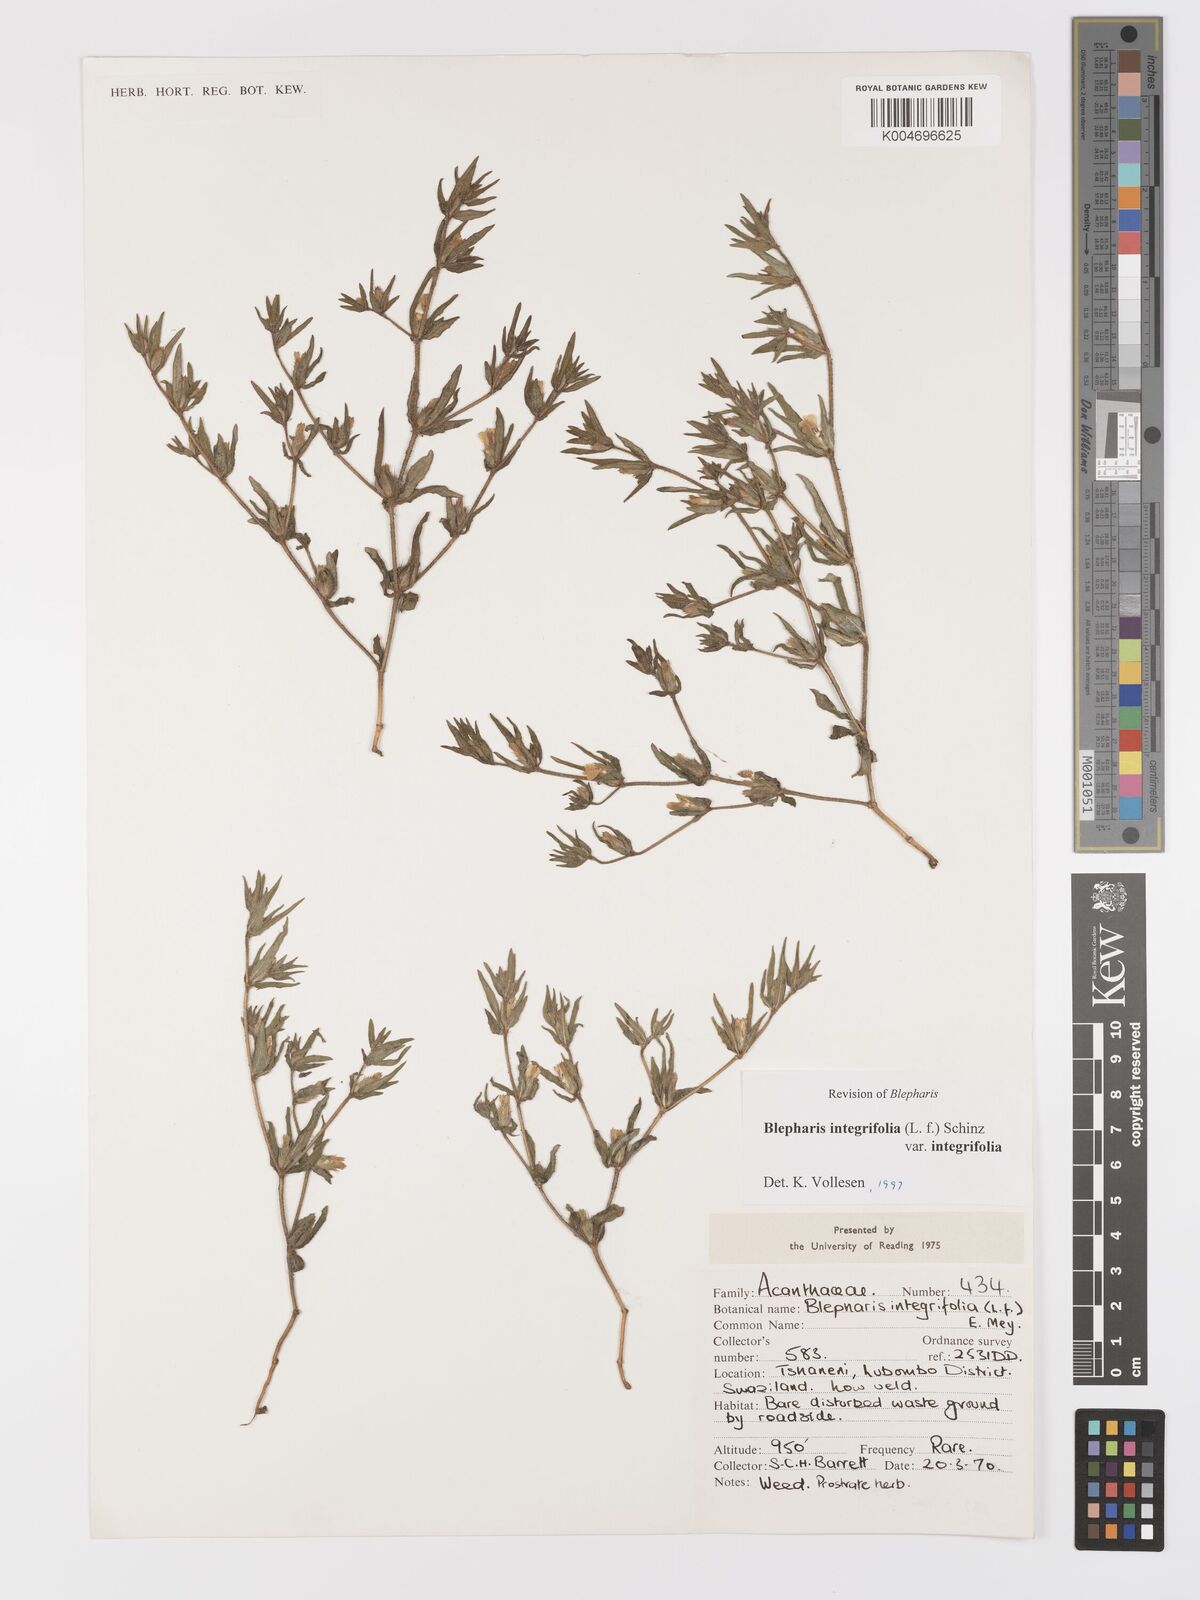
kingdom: Plantae
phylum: Tracheophyta
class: Magnoliopsida
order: Lamiales
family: Acanthaceae
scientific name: Acanthaceae
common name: Acanthaceae
